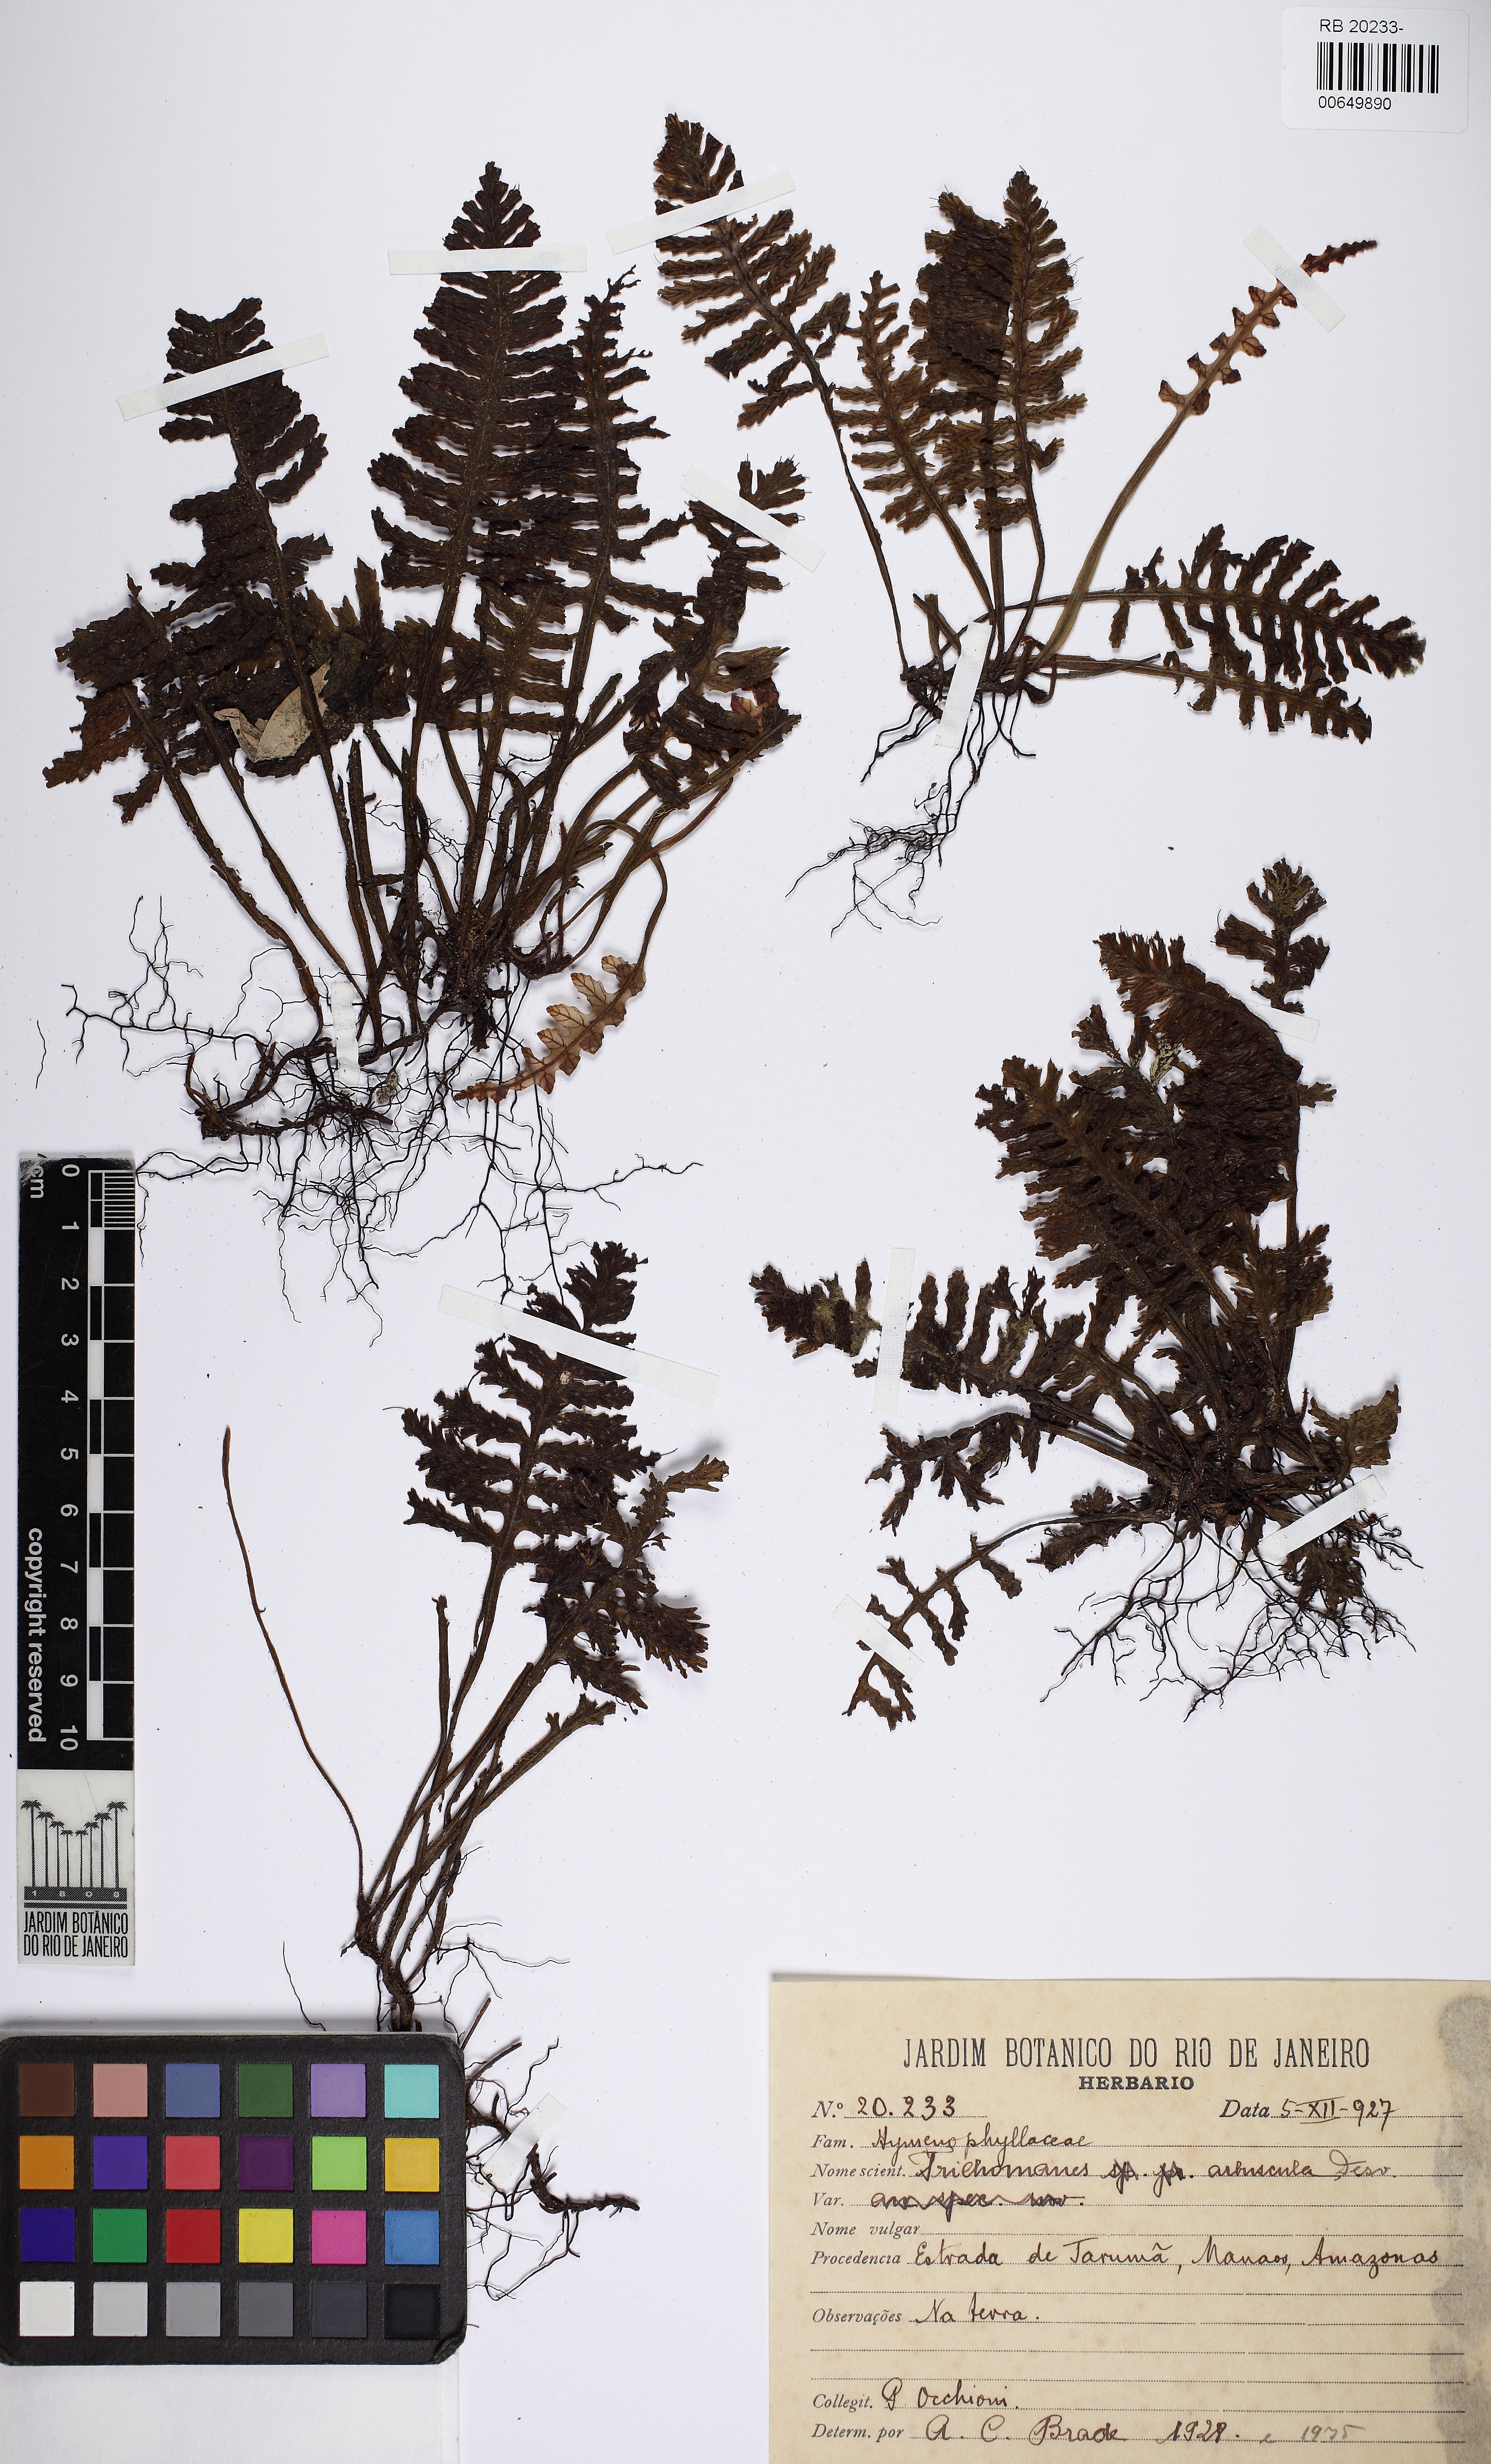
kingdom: Plantae
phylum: Tracheophyta
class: Polypodiopsida
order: Hymenophyllales
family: Hymenophyllaceae
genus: Trichomanes
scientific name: Trichomanes arbuscula
